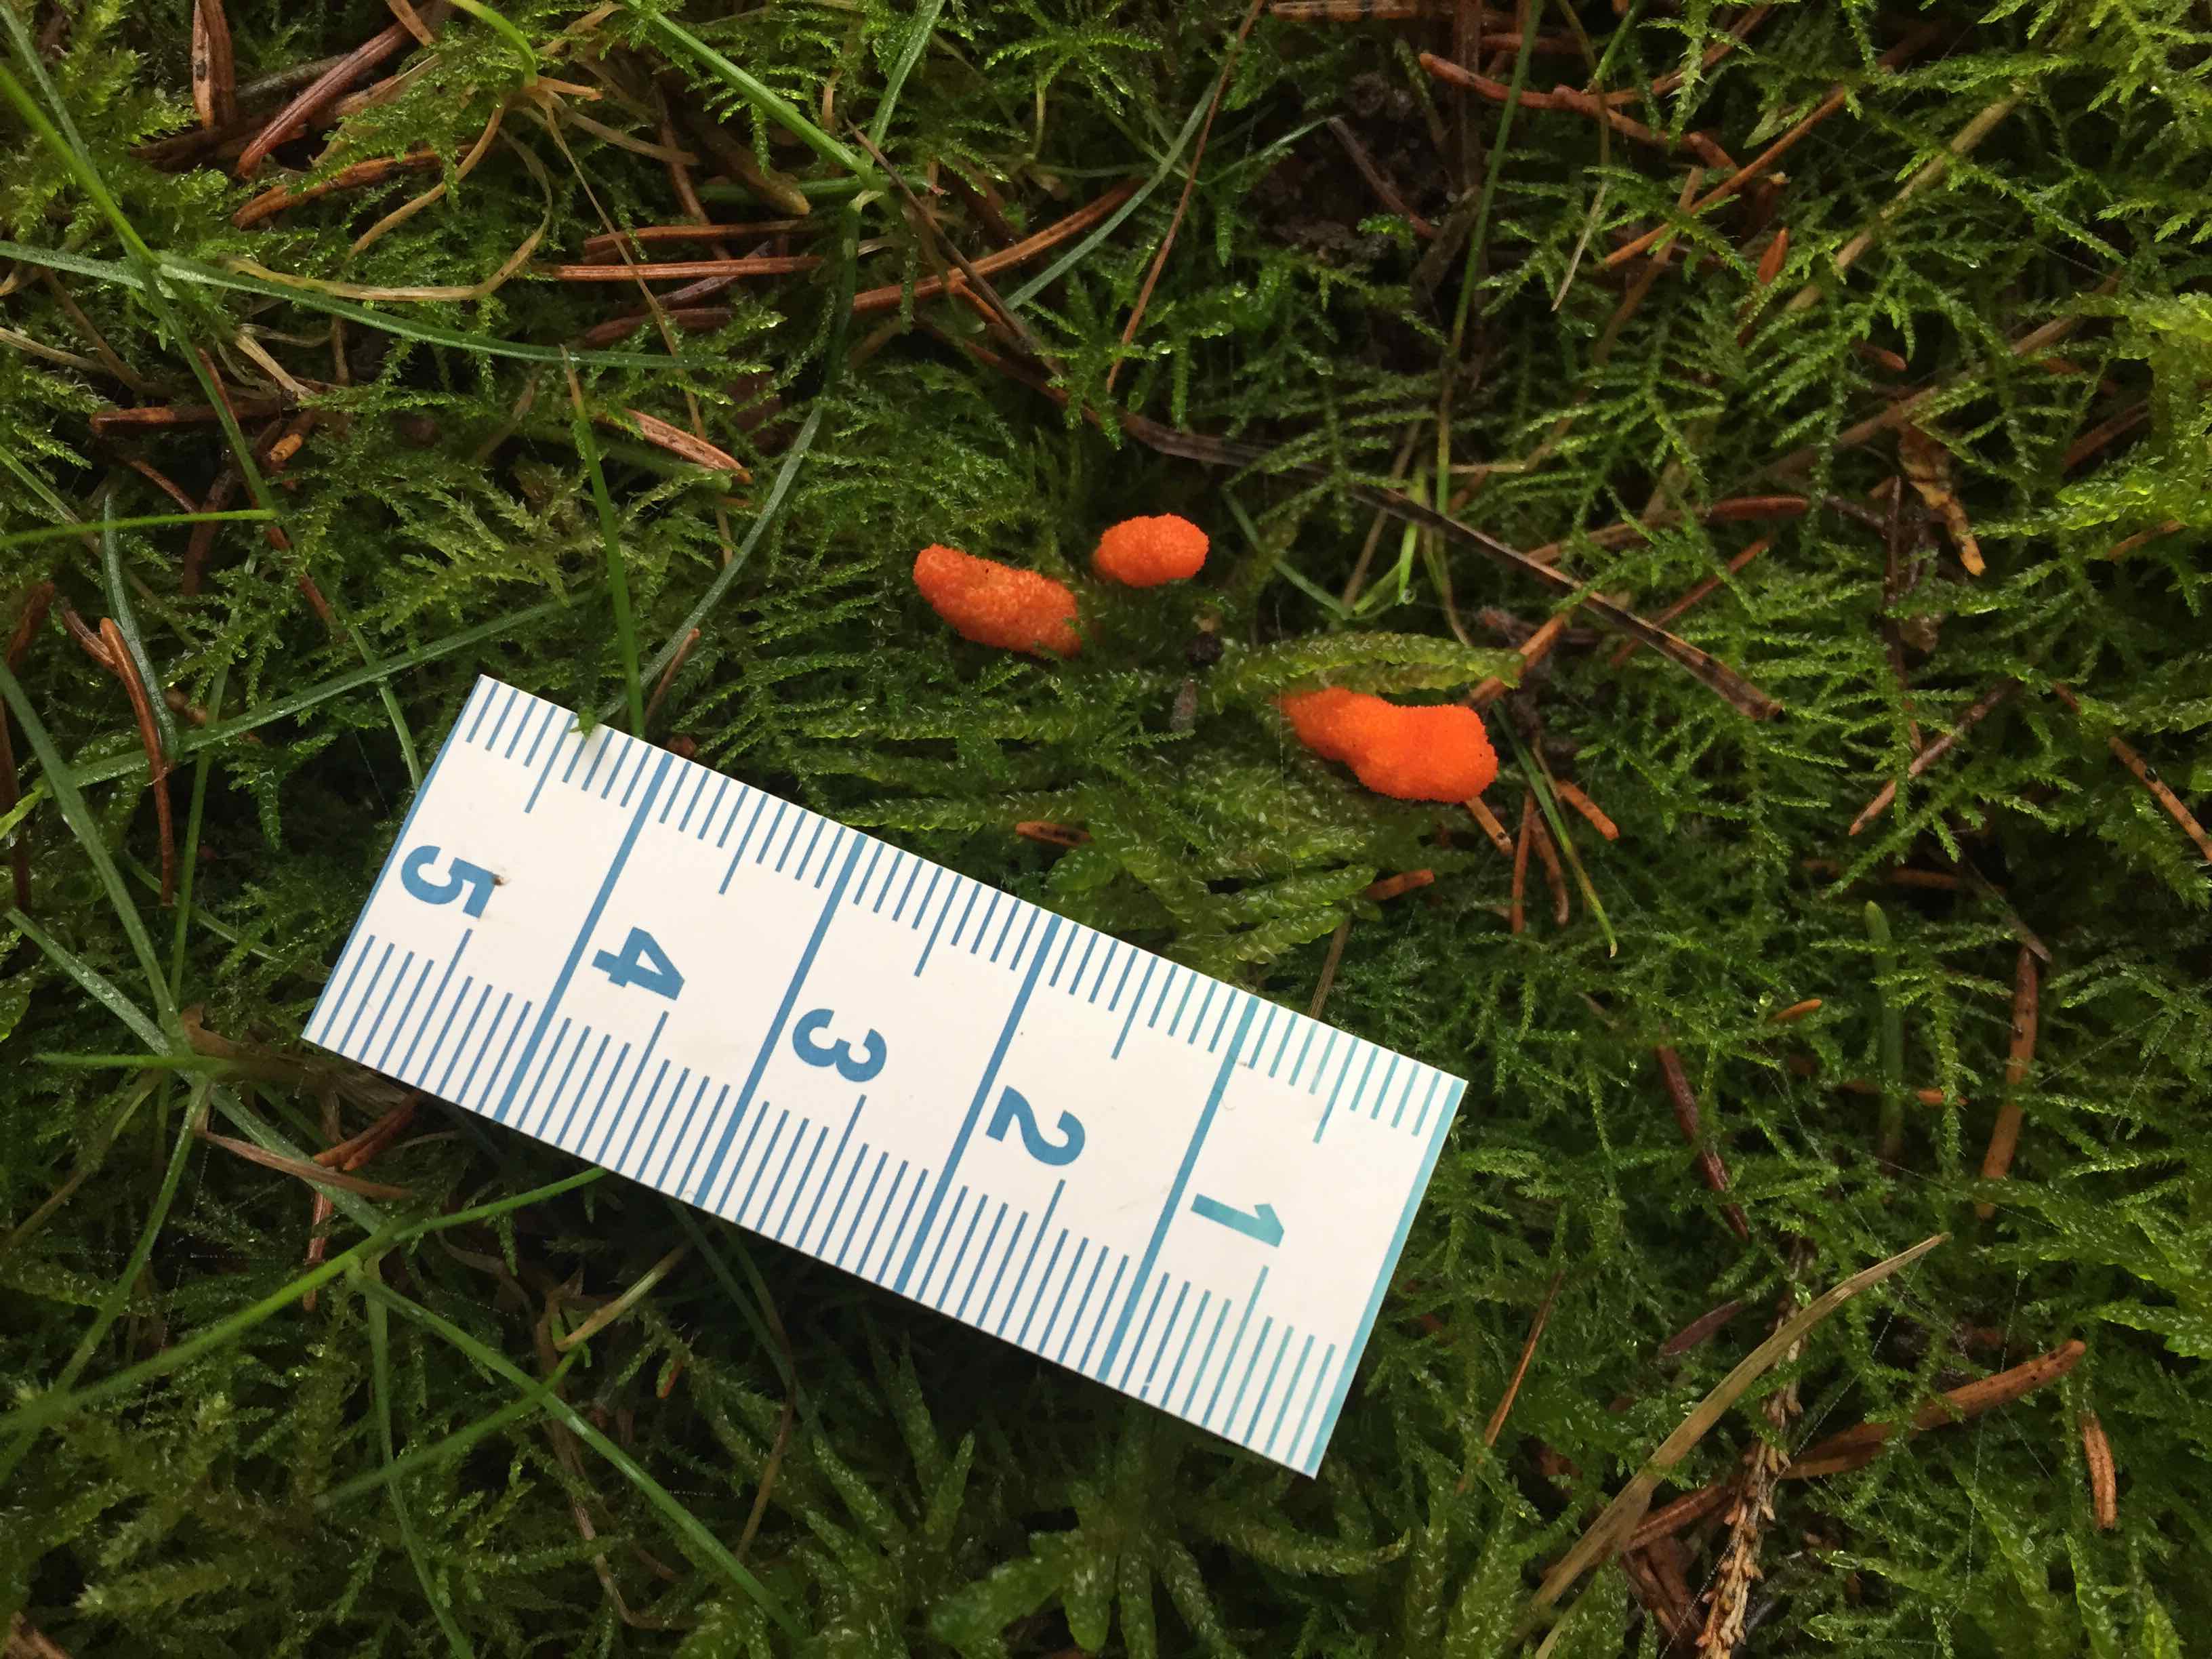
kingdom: Fungi
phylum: Ascomycota
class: Sordariomycetes
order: Hypocreales
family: Cordycipitaceae
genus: Cordyceps
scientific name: Cordyceps militaris
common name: puppe-snyltekølle
